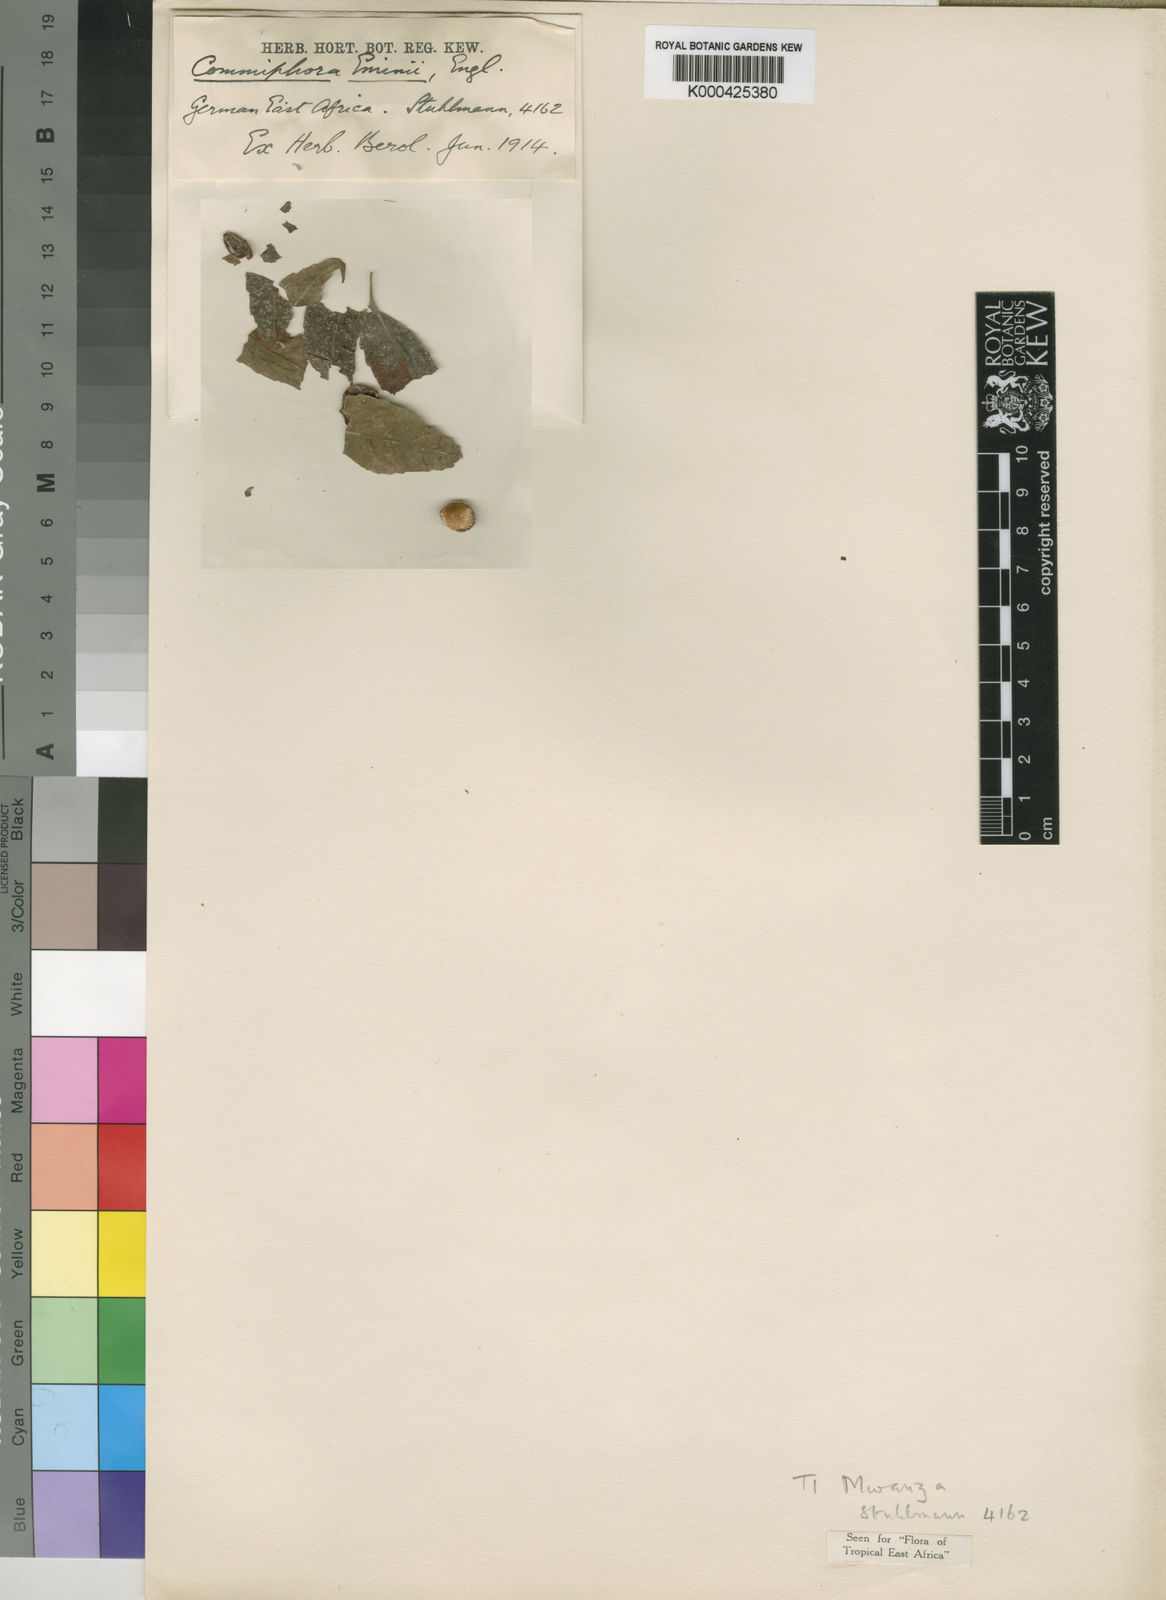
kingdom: Plantae
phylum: Tracheophyta
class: Magnoliopsida
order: Sapindales
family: Burseraceae
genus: Commiphora
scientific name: Commiphora eminii
